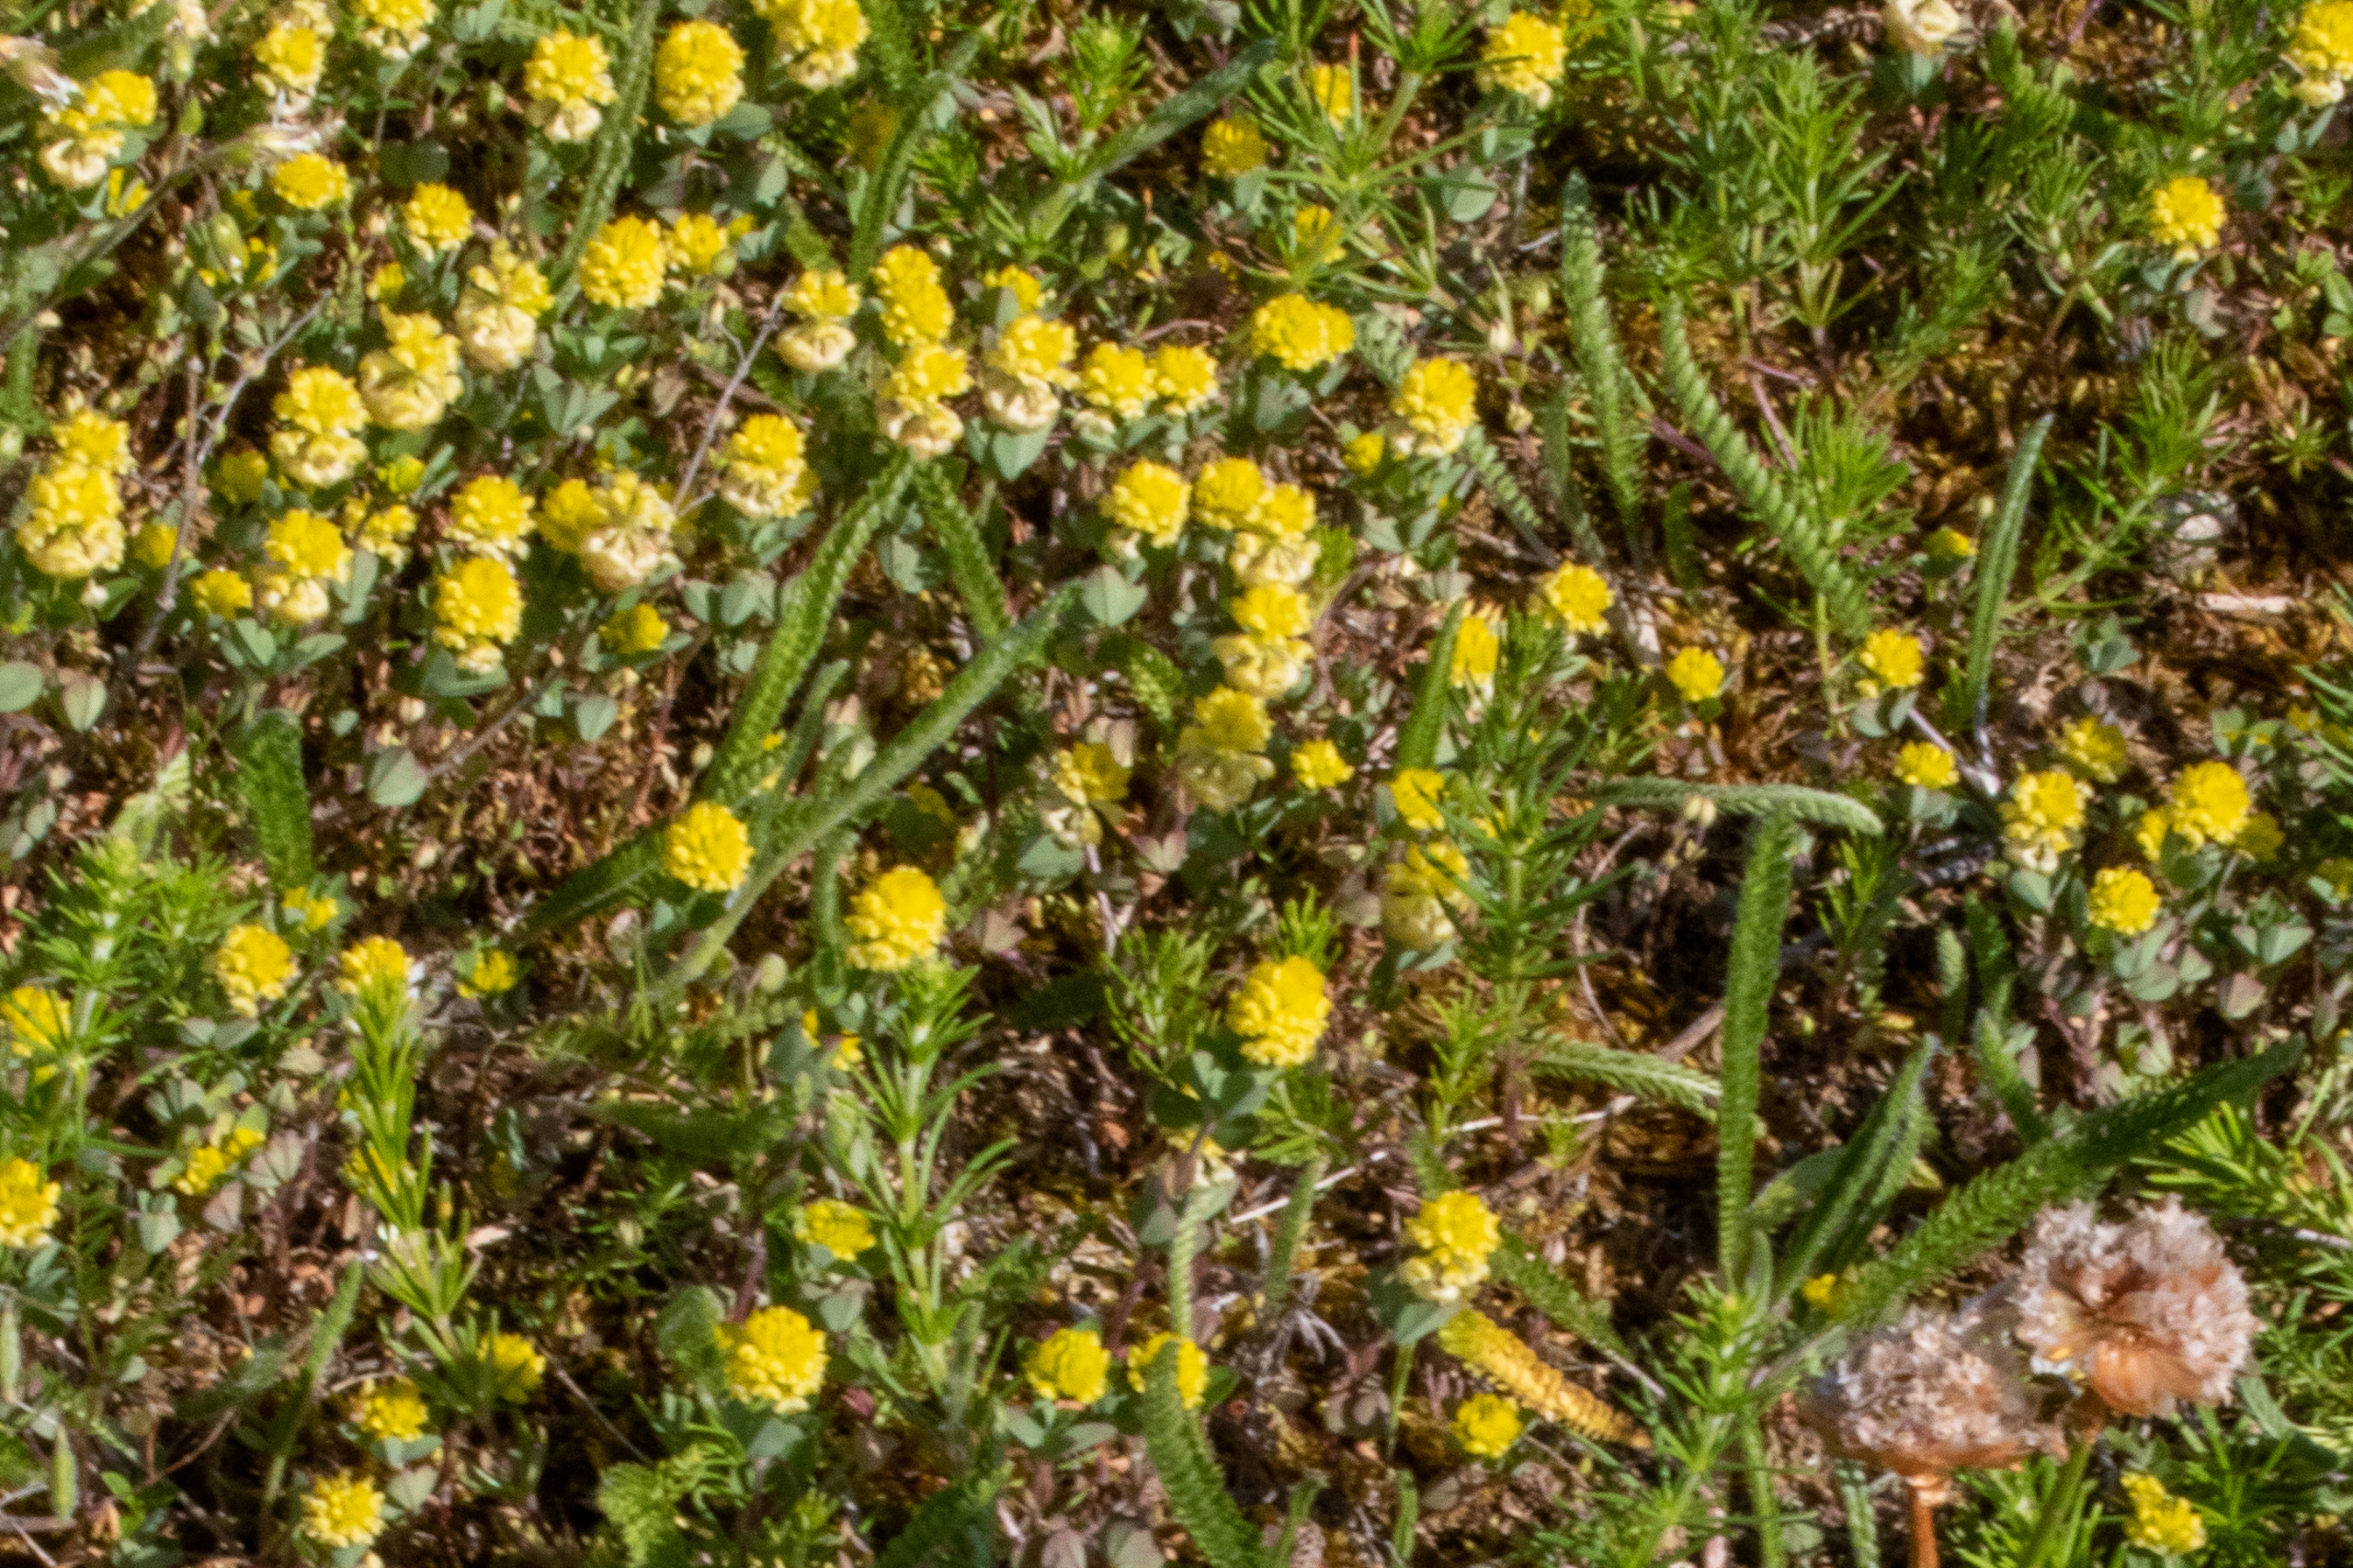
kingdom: Plantae
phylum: Tracheophyta
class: Magnoliopsida
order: Fabales
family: Fabaceae
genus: Trifolium
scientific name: Trifolium campestre
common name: Gul kløver
